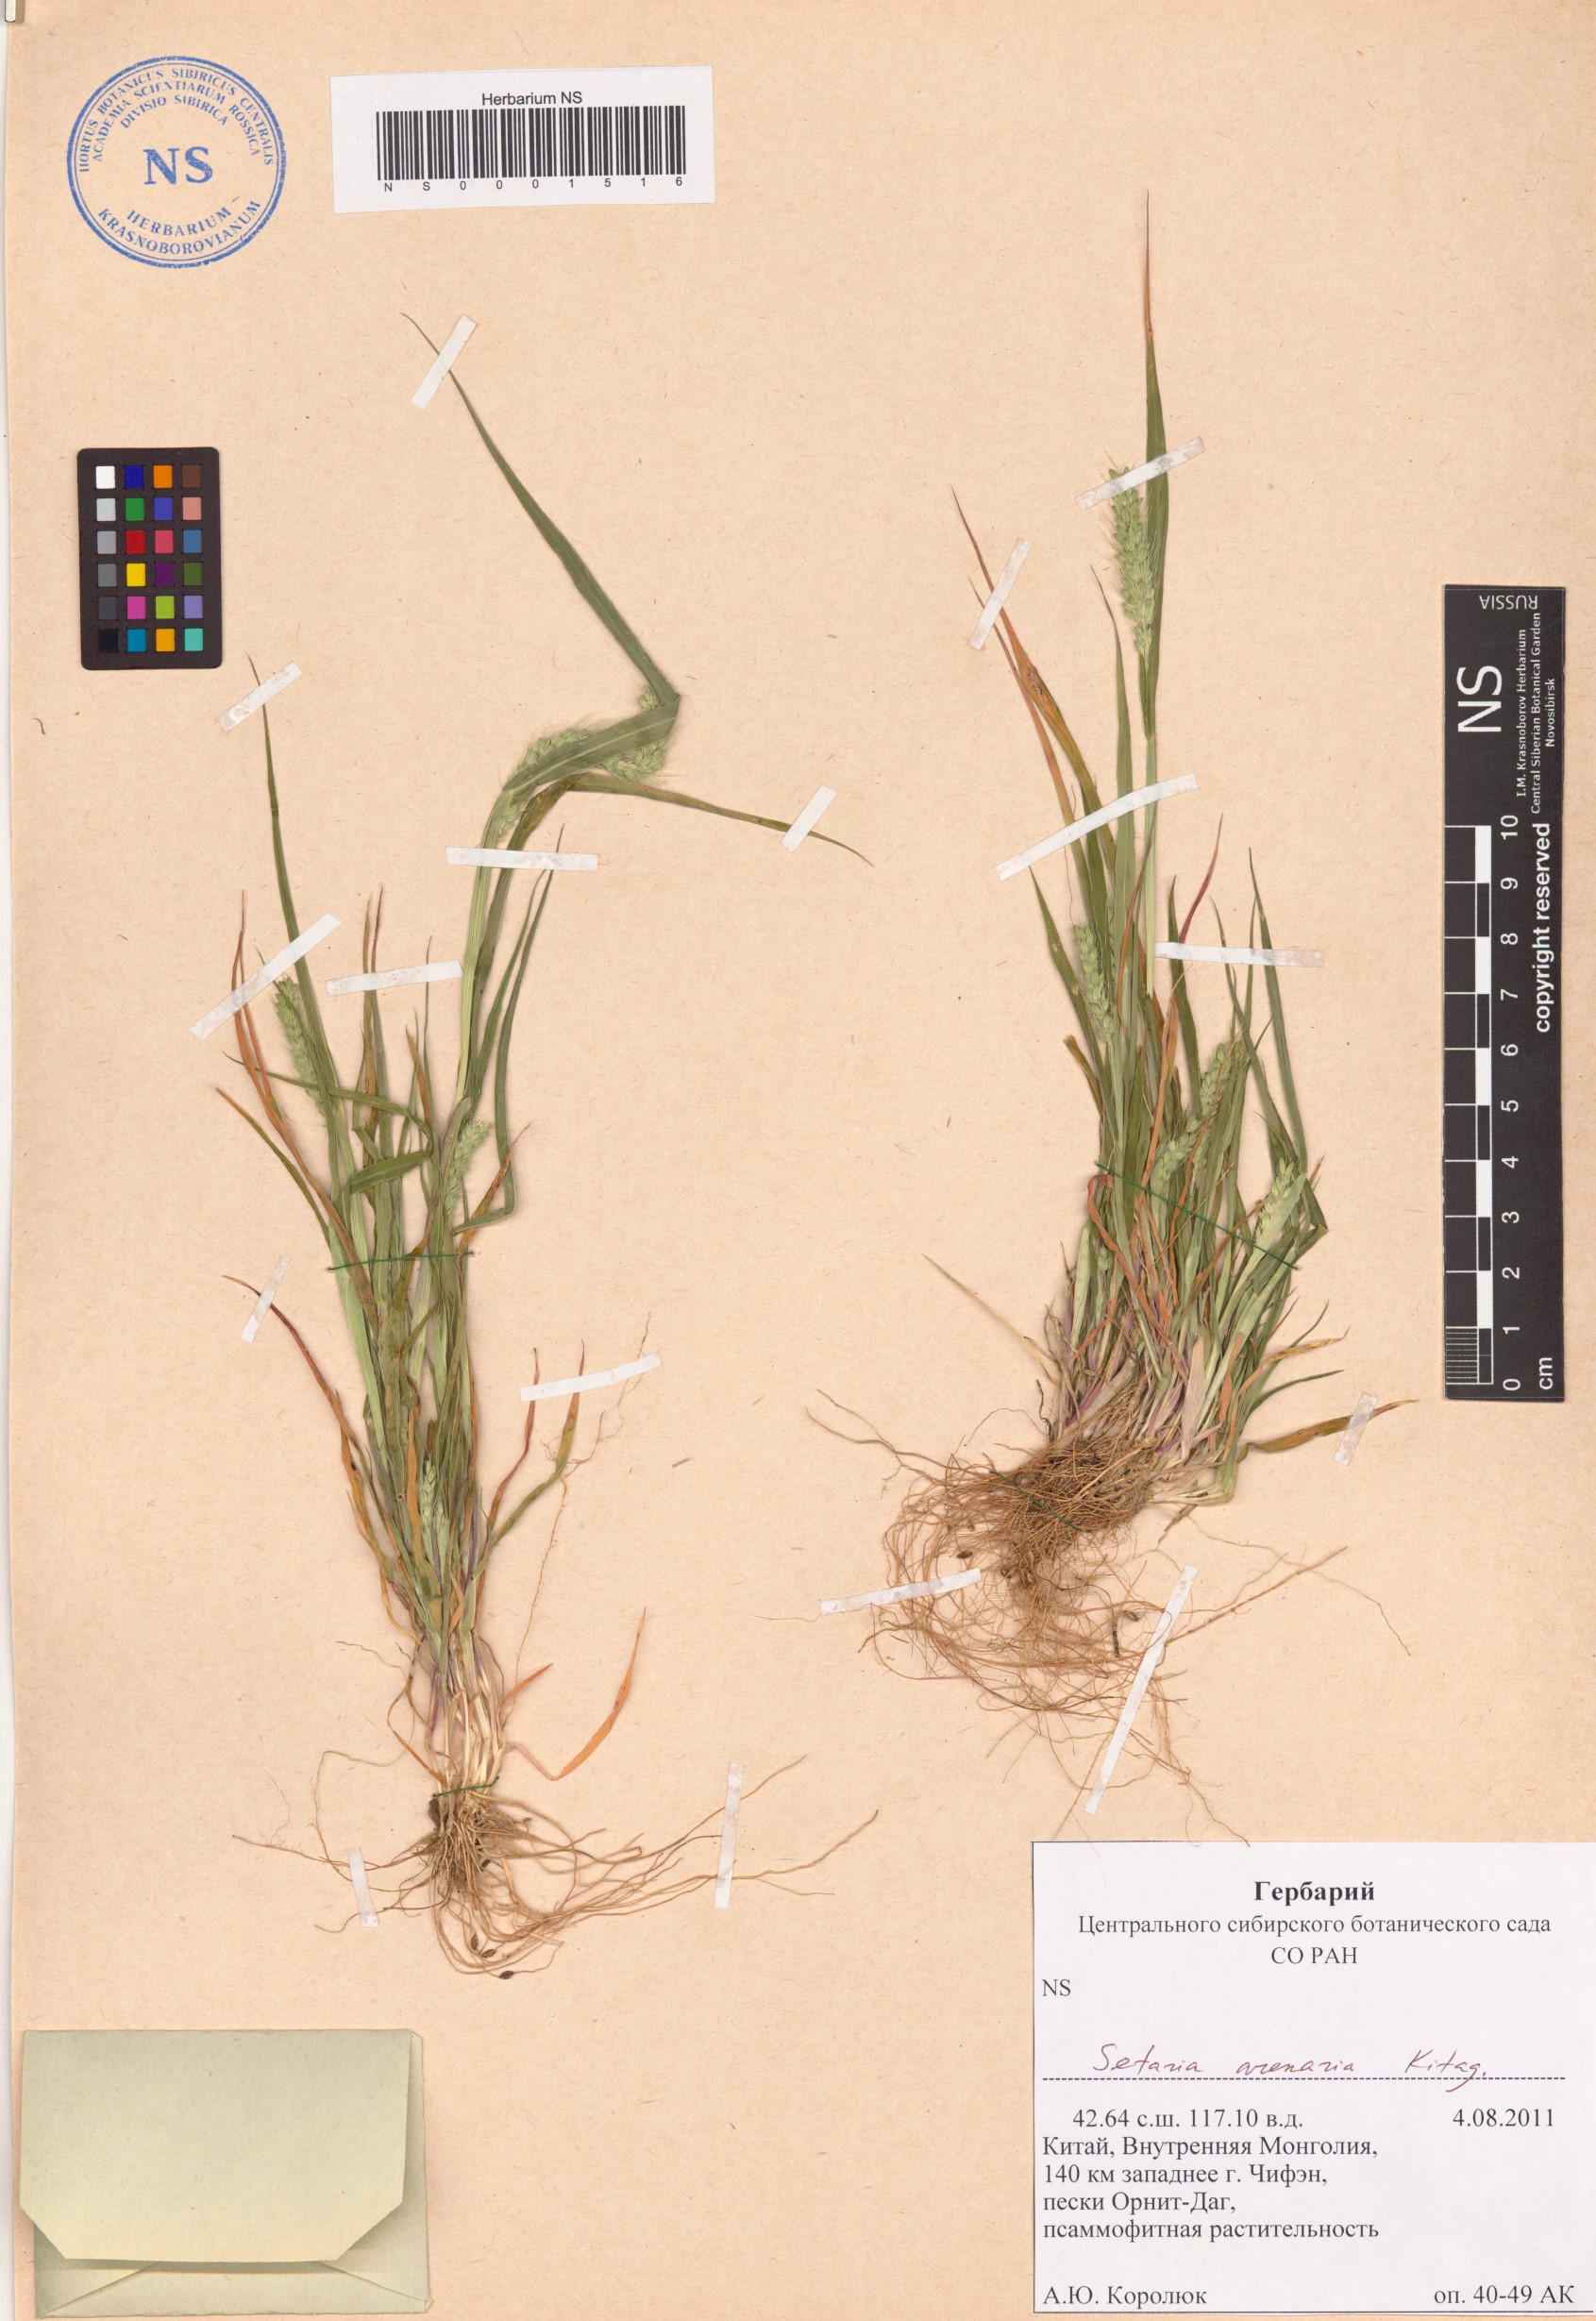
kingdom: Plantae
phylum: Tracheophyta
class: Liliopsida
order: Poales
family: Poaceae
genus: Setaria
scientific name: Setaria viridis
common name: Green bristlegrass
